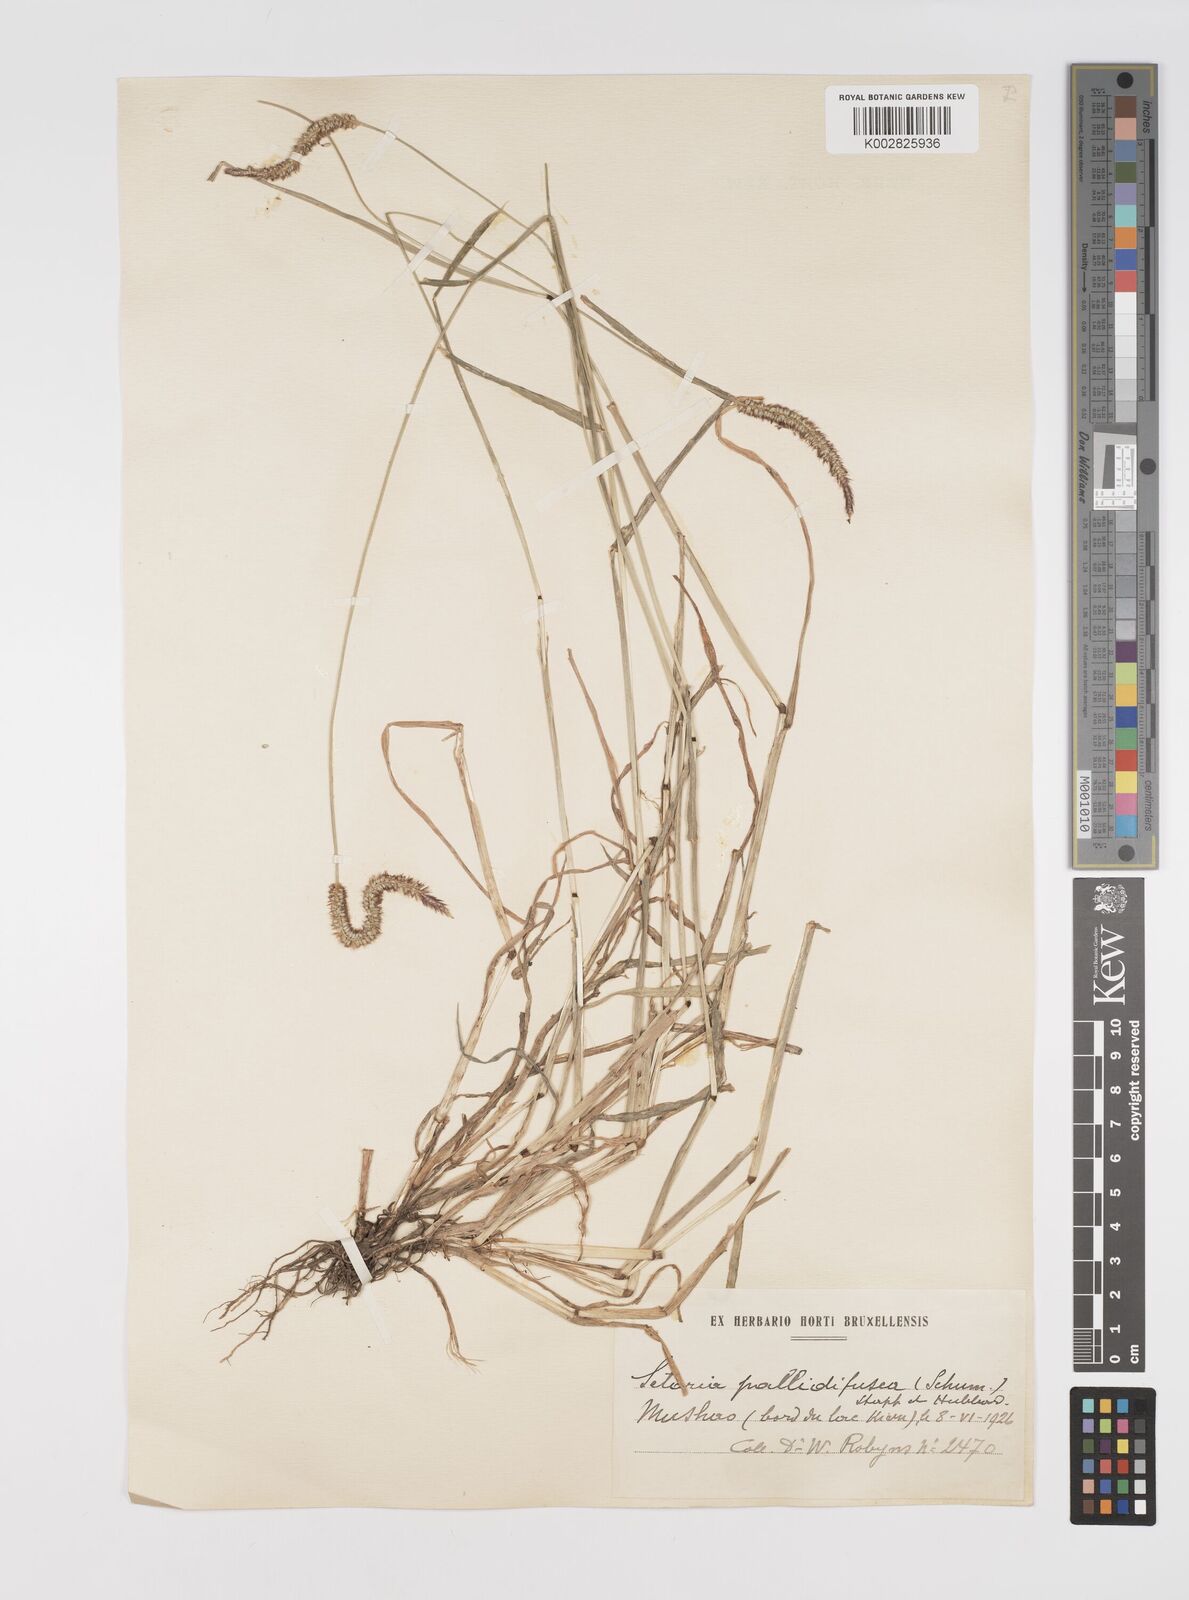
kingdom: Plantae
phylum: Tracheophyta
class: Liliopsida
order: Poales
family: Poaceae
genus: Setaria
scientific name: Setaria pumila
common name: Yellow bristle-grass
